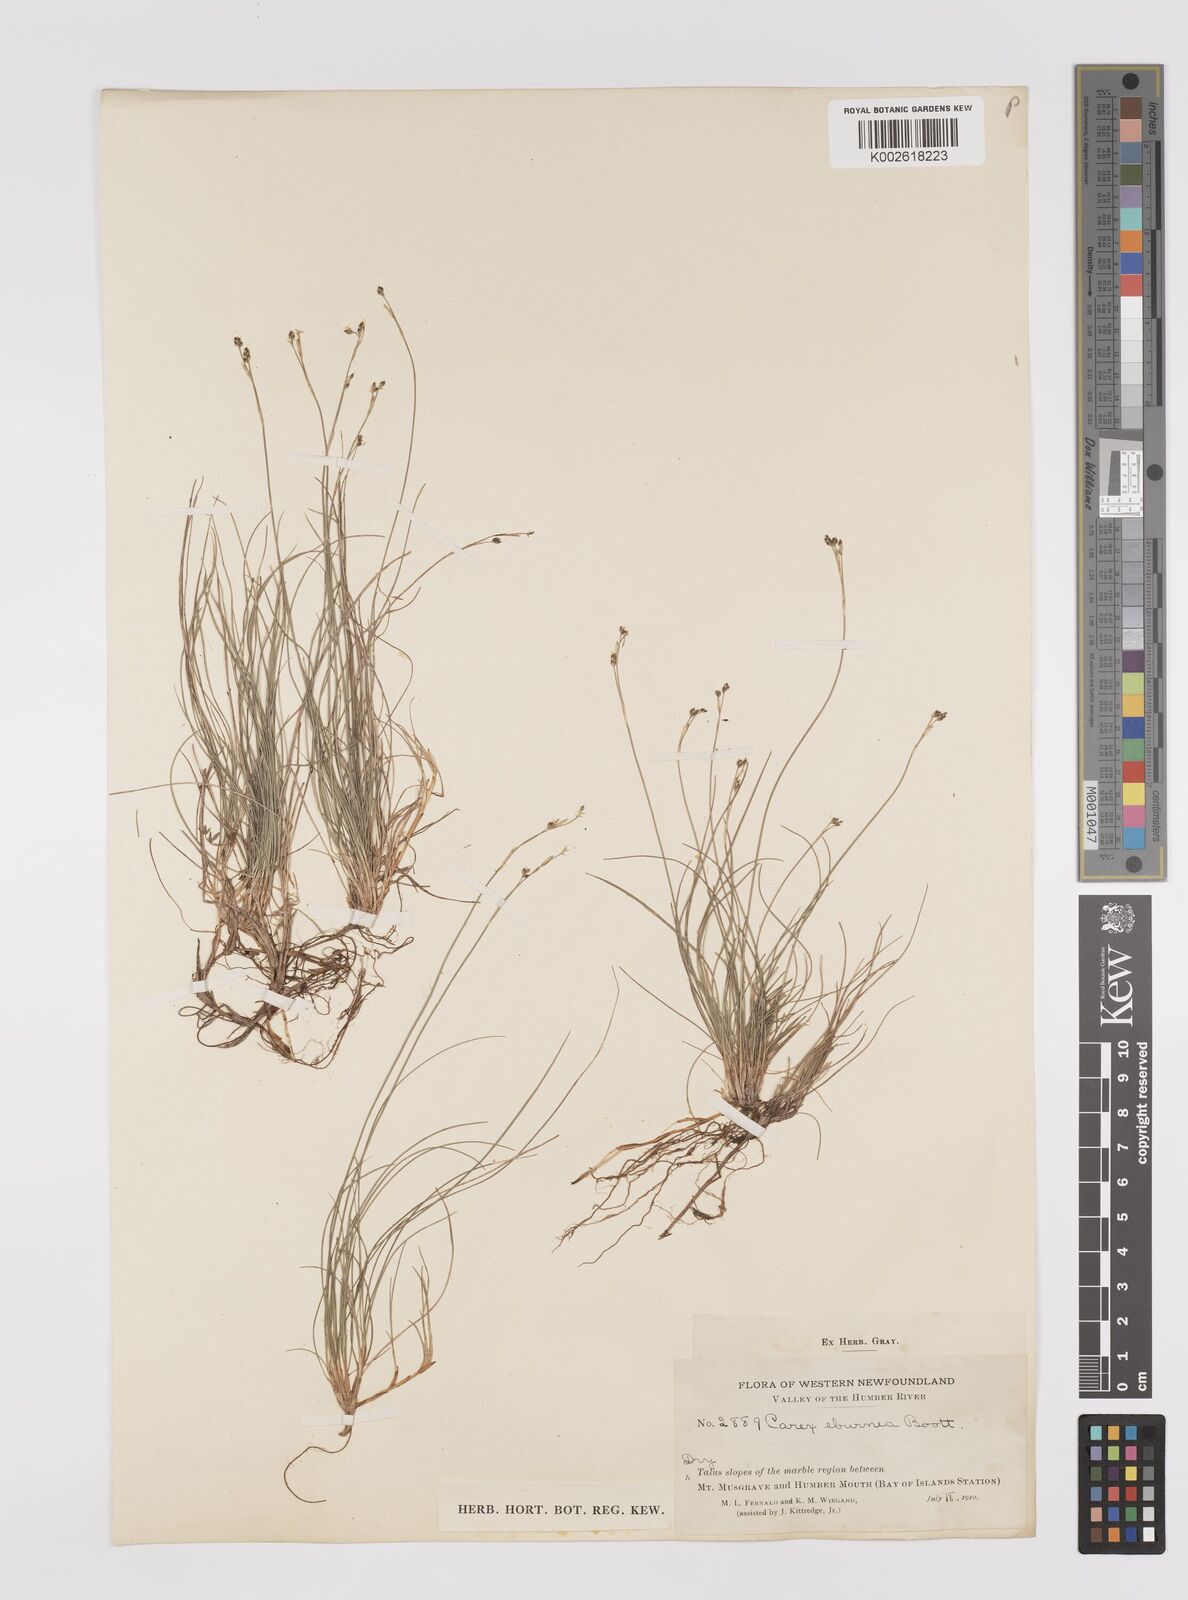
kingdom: Plantae
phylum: Tracheophyta
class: Liliopsida
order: Poales
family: Cyperaceae
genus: Carex
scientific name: Carex eburnea
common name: Bristle-leaved sedge
